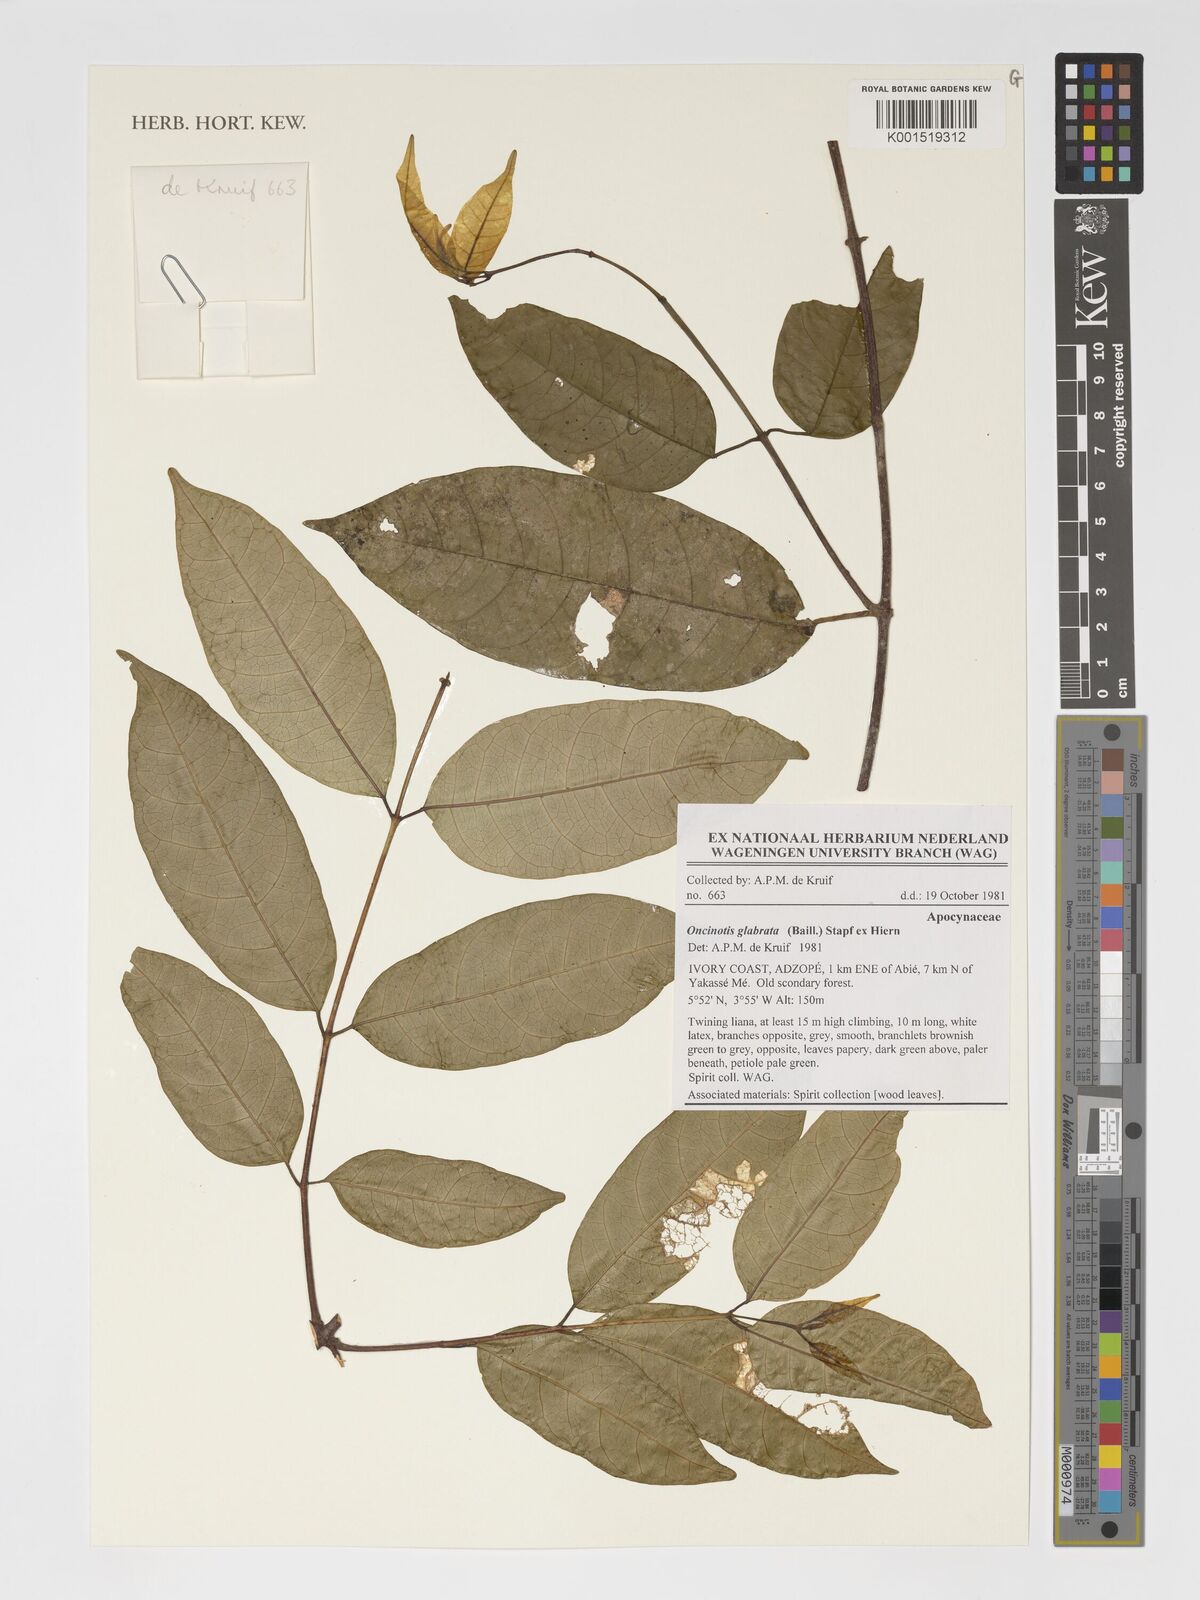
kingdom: Plantae
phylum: Tracheophyta
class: Magnoliopsida
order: Gentianales
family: Apocynaceae
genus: Oncinotis
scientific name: Oncinotis glabrata
